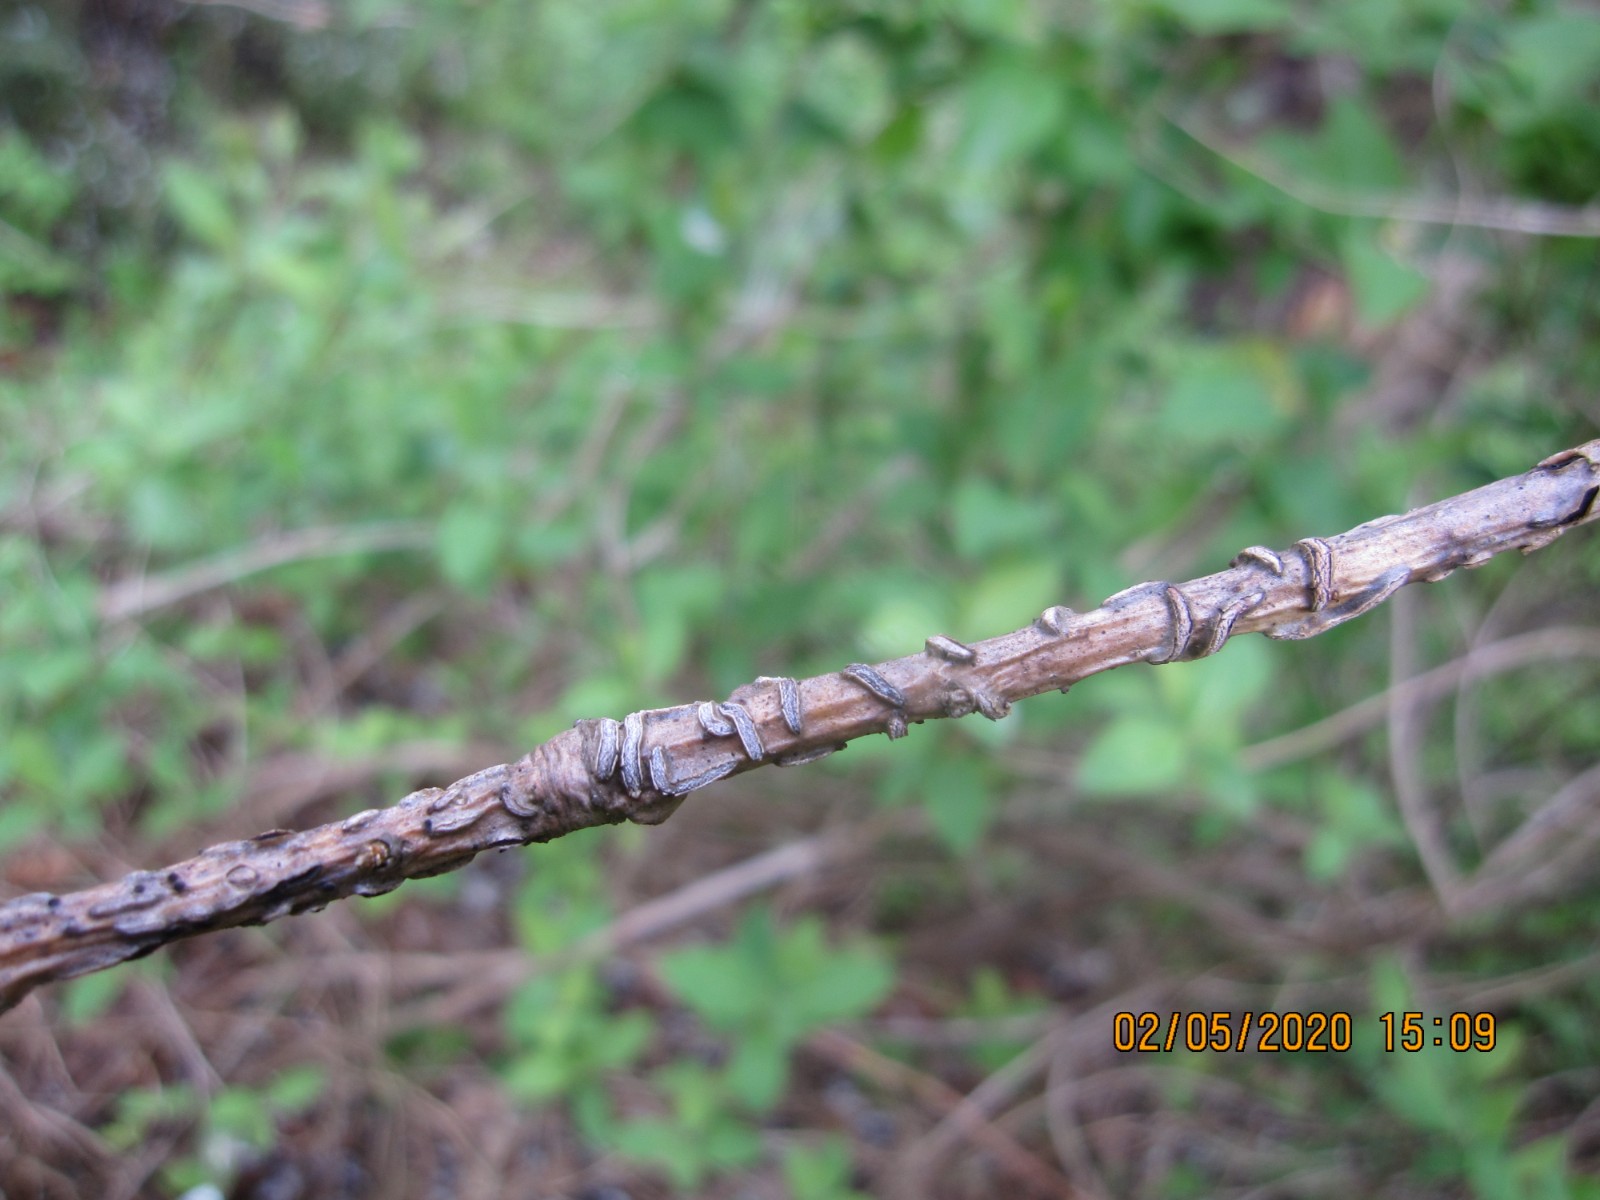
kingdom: Fungi
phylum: Ascomycota
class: Leotiomycetes
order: Rhytismatales
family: Rhytismataceae
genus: Colpoma
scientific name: Colpoma quercinum
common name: ege-sprækkeskive
